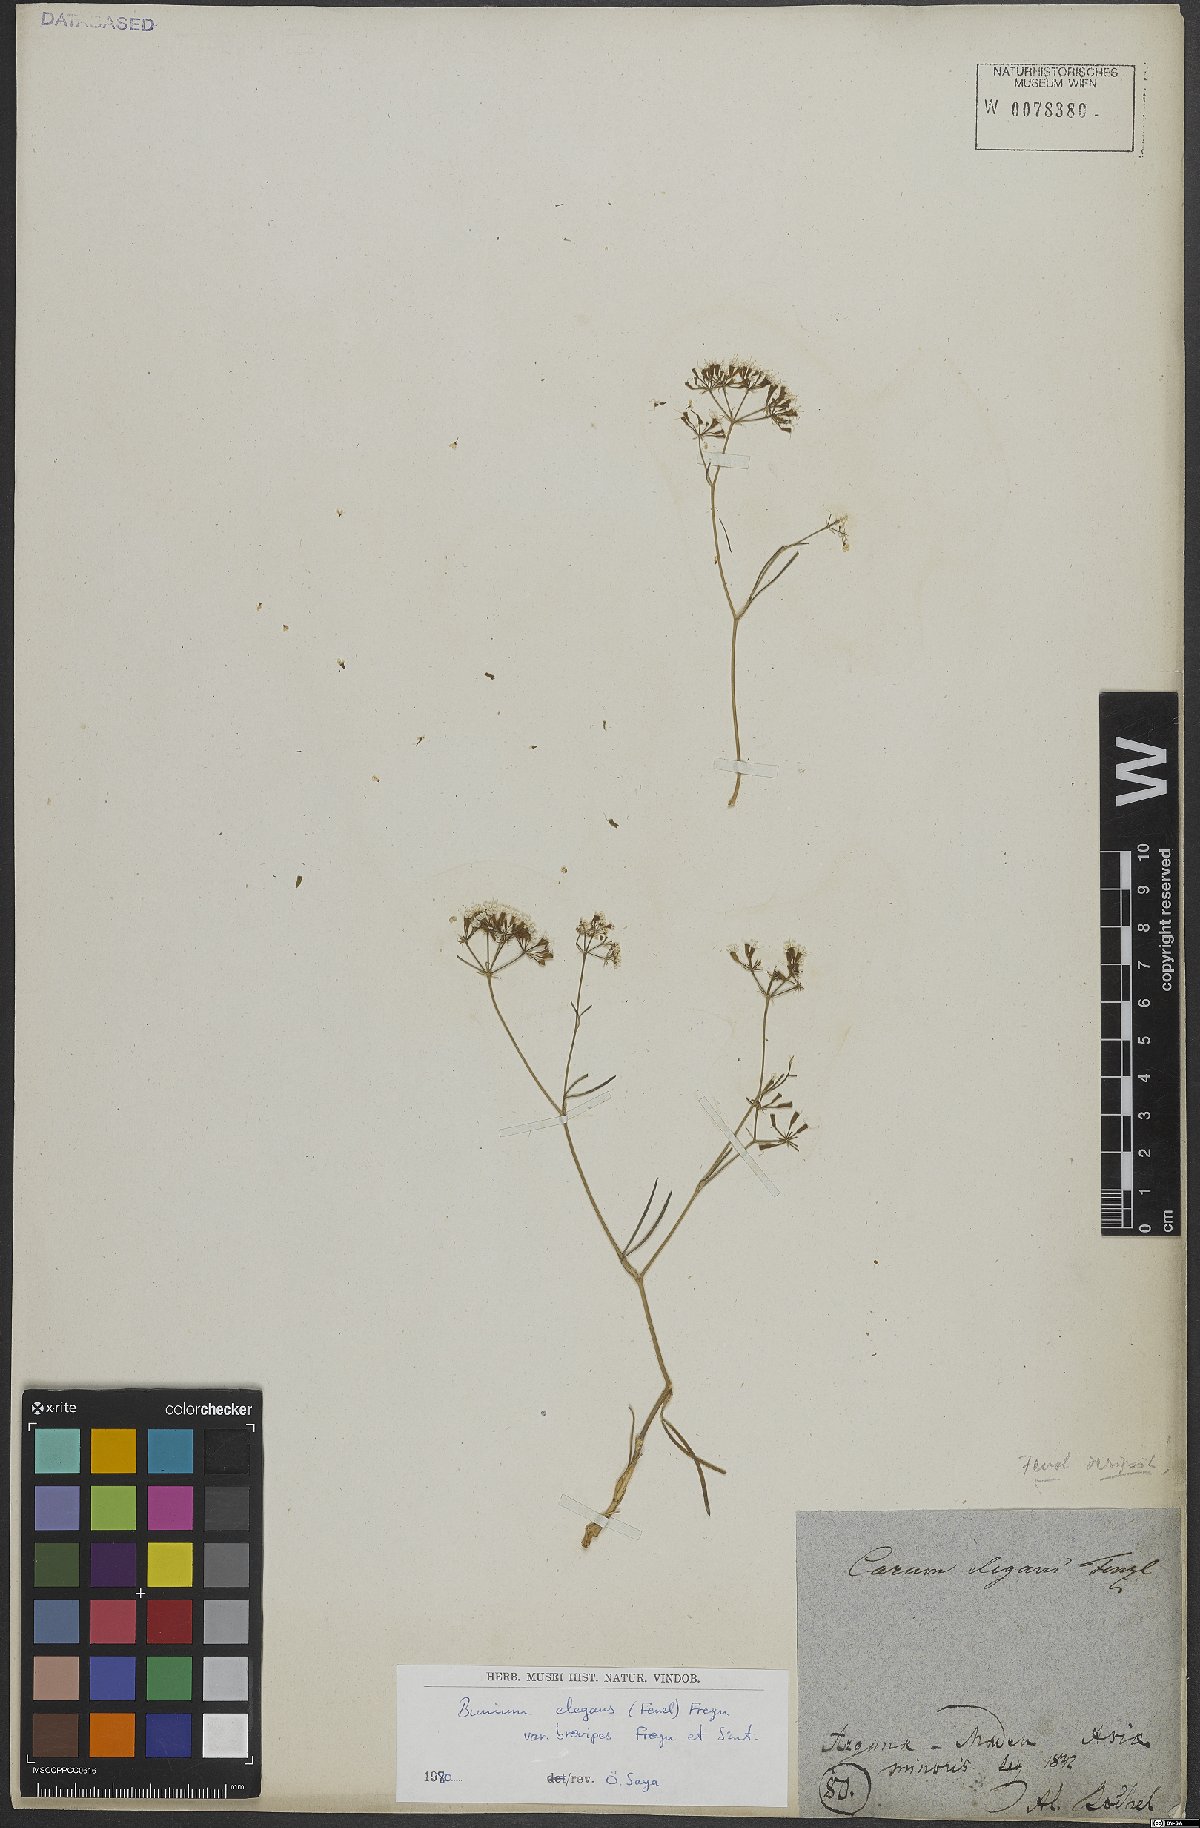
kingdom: Plantae
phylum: Tracheophyta
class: Magnoliopsida
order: Apiales
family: Apiaceae
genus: Bunium
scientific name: Bunium elegans
